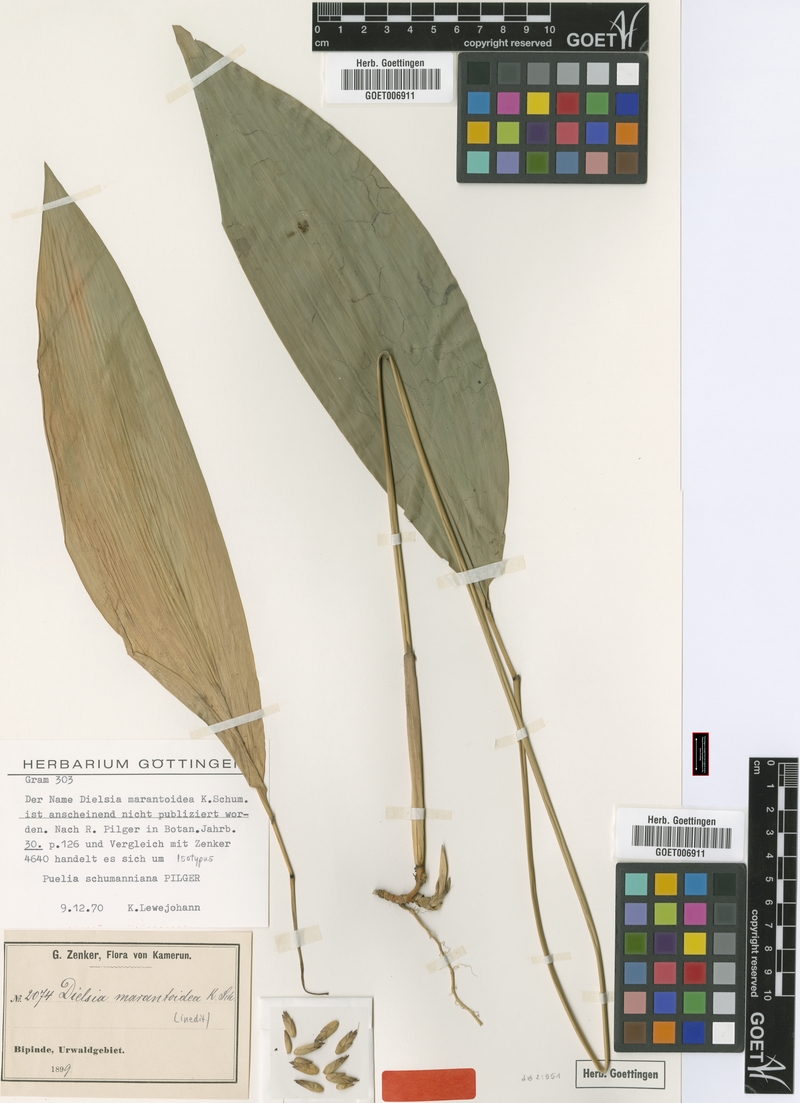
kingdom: Plantae
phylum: Tracheophyta
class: Liliopsida
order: Poales
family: Poaceae
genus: Puelia
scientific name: Puelia schumanniana
